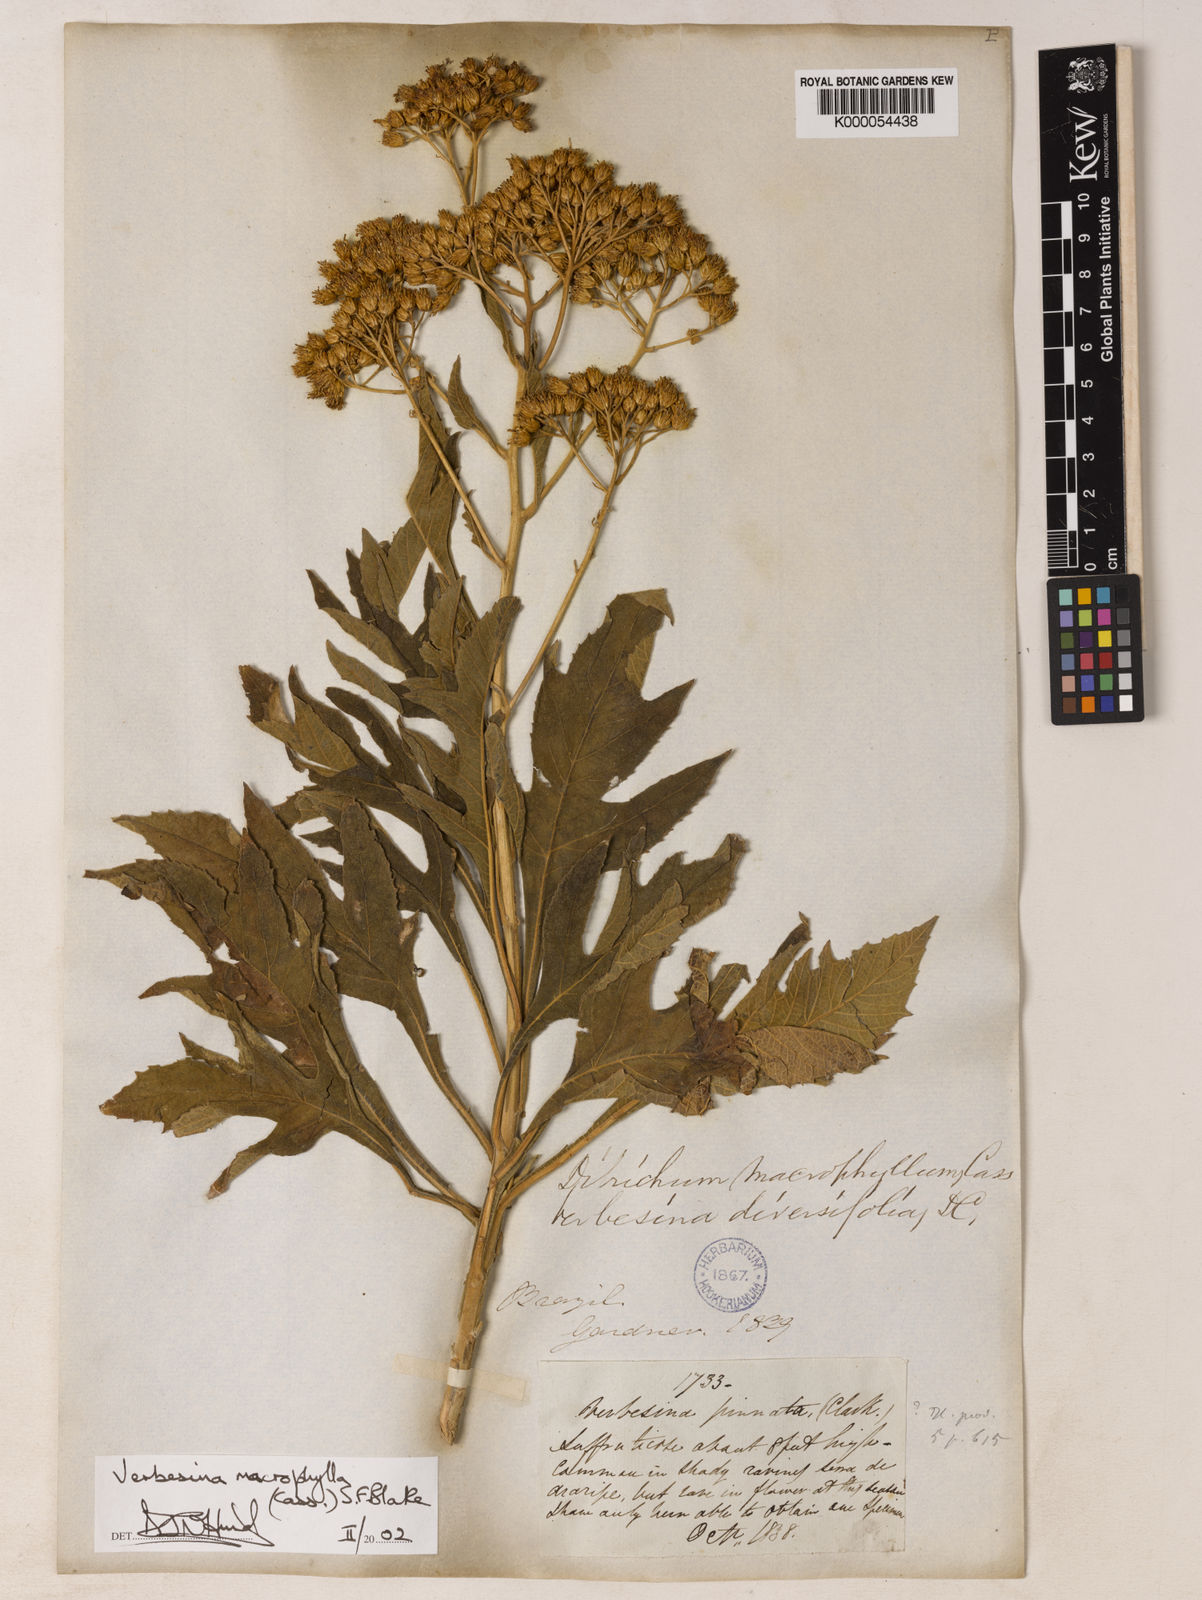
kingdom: Plantae
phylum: Tracheophyta
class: Magnoliopsida
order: Asterales
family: Asteraceae
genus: Verbesina
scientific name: Verbesina macrophylla
